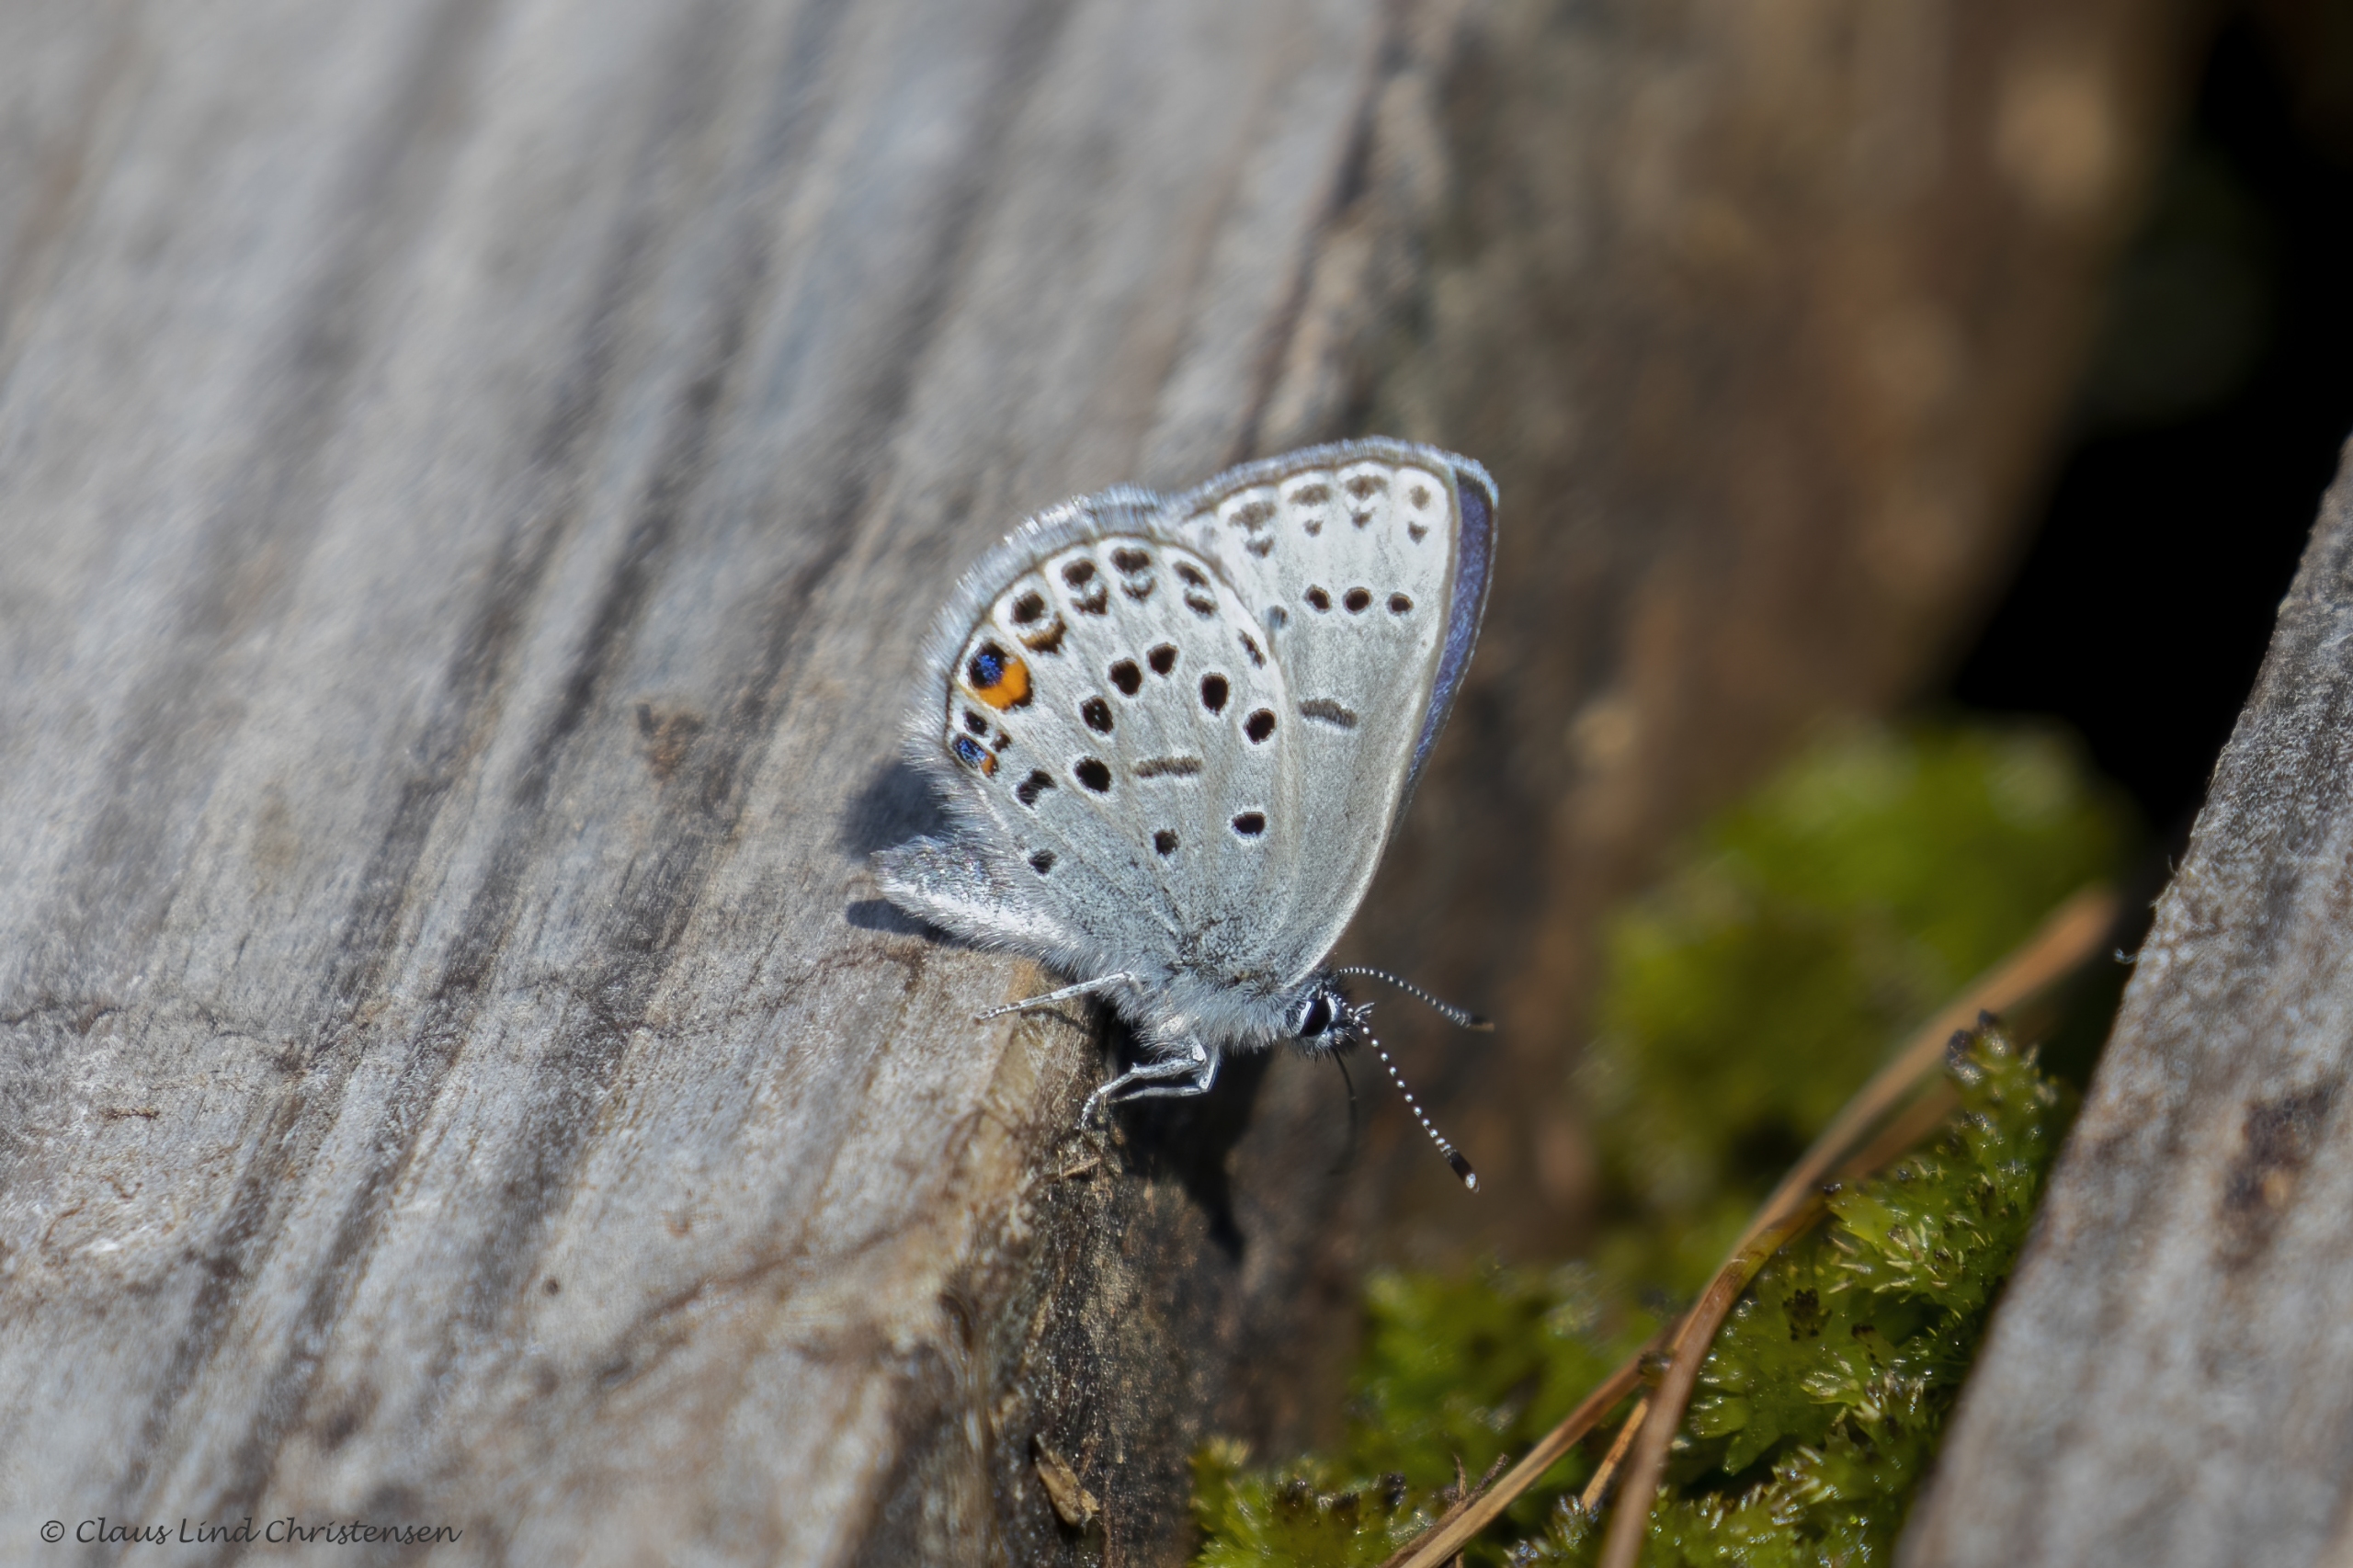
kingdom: Animalia
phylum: Arthropoda
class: Insecta
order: Lepidoptera
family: Lycaenidae
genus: Vacciniina
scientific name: Vacciniina optilete
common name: Bølleblåfugl
